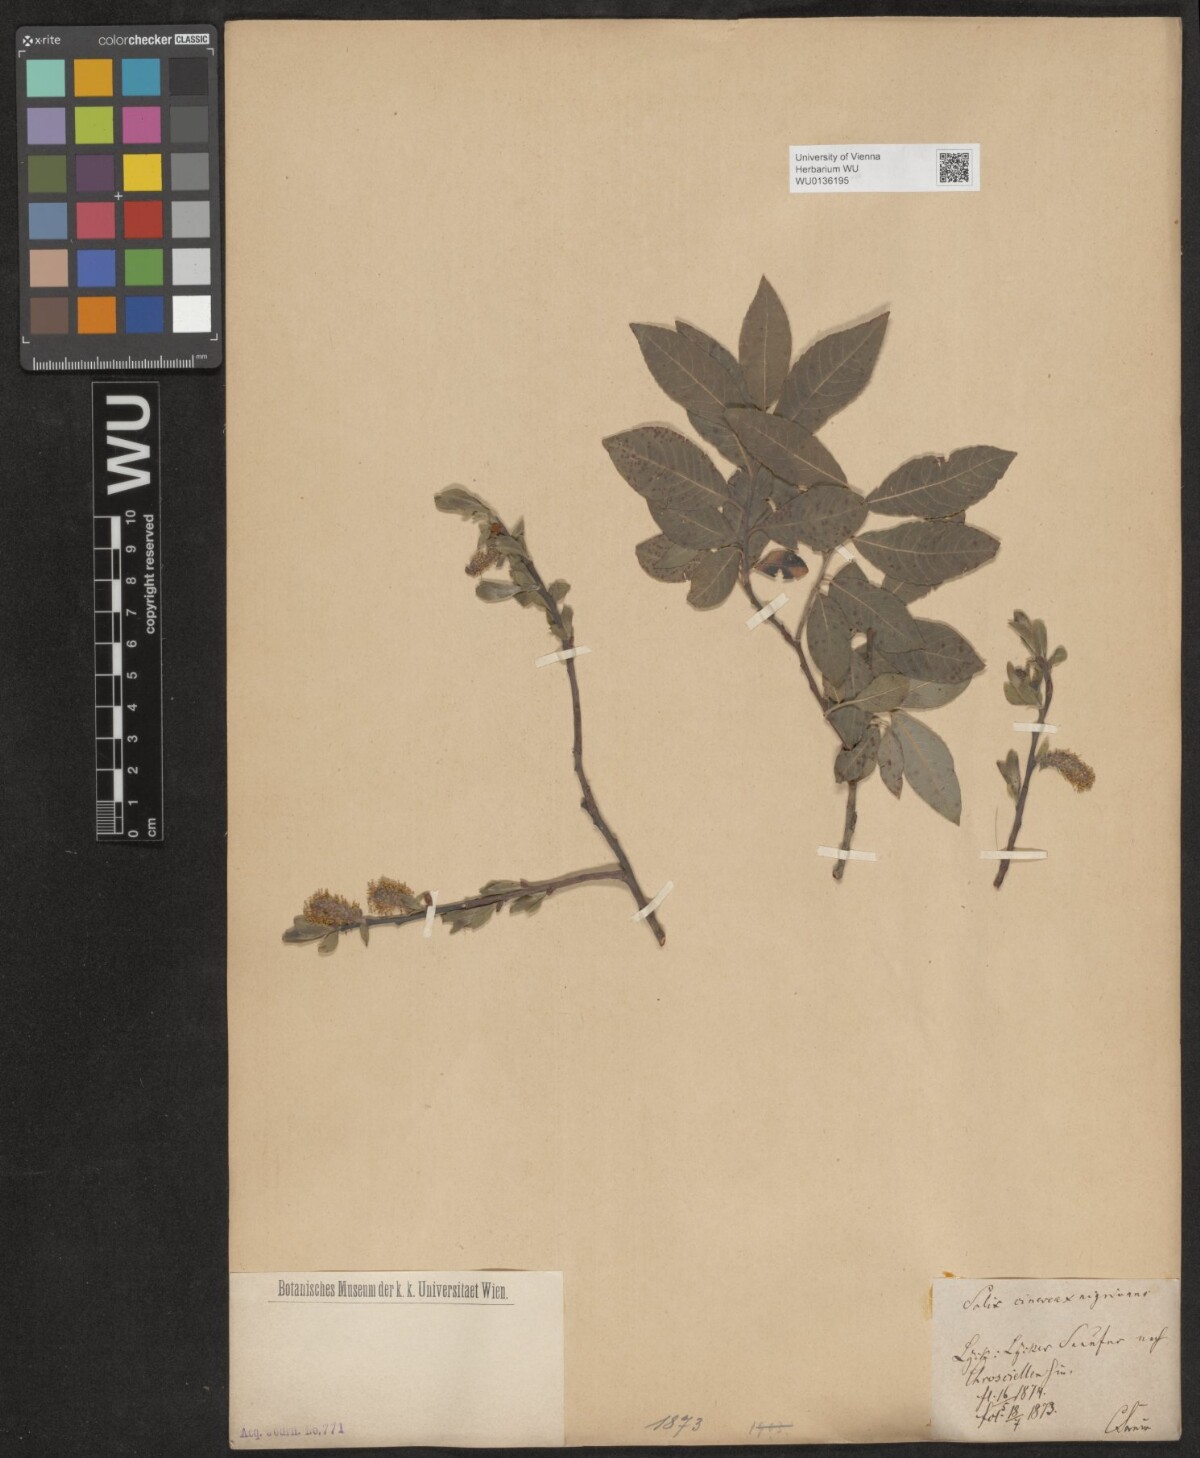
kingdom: Plantae
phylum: Tracheophyta
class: Magnoliopsida
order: Malpighiales
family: Salicaceae
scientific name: Salicaceae
